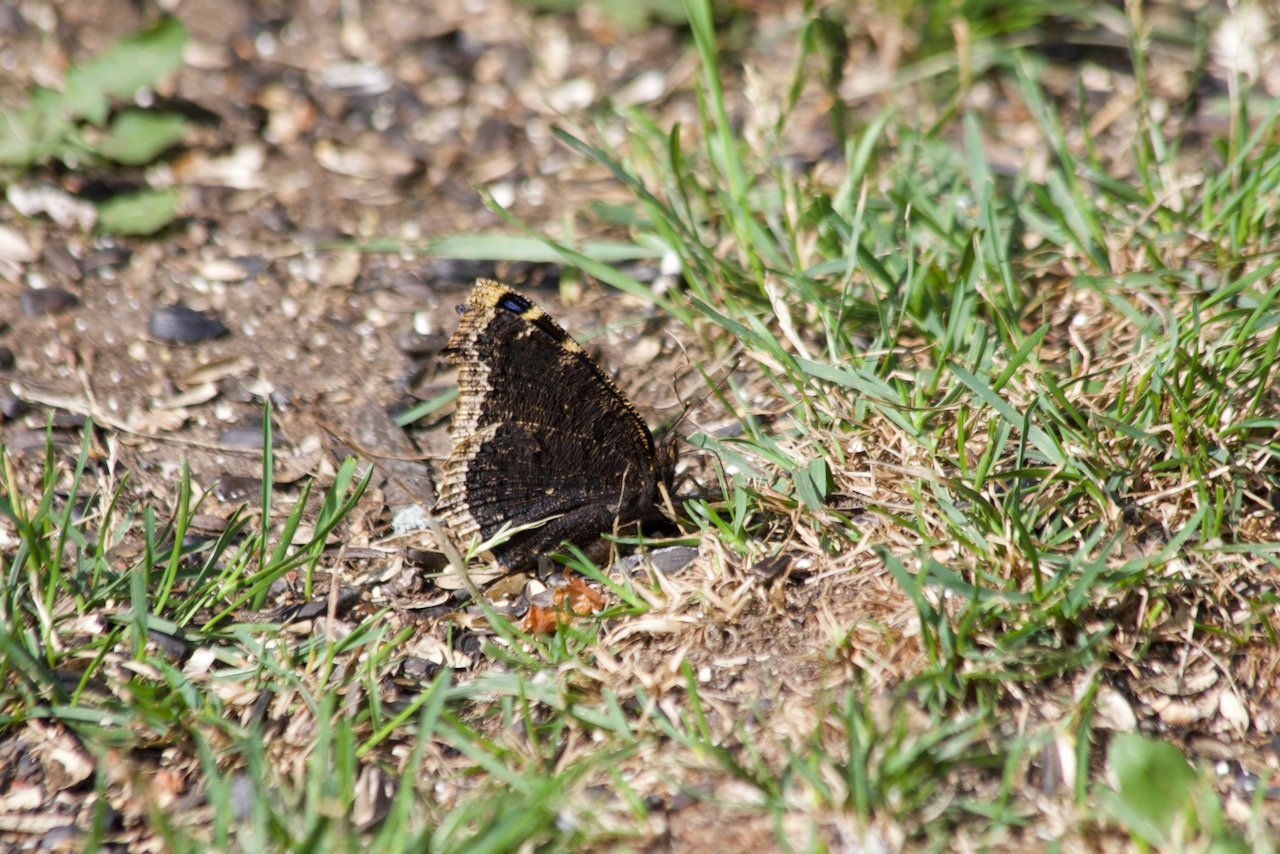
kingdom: Animalia
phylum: Arthropoda
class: Insecta
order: Lepidoptera
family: Nymphalidae
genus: Nymphalis
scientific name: Nymphalis antiopa
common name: Mourning Cloak
